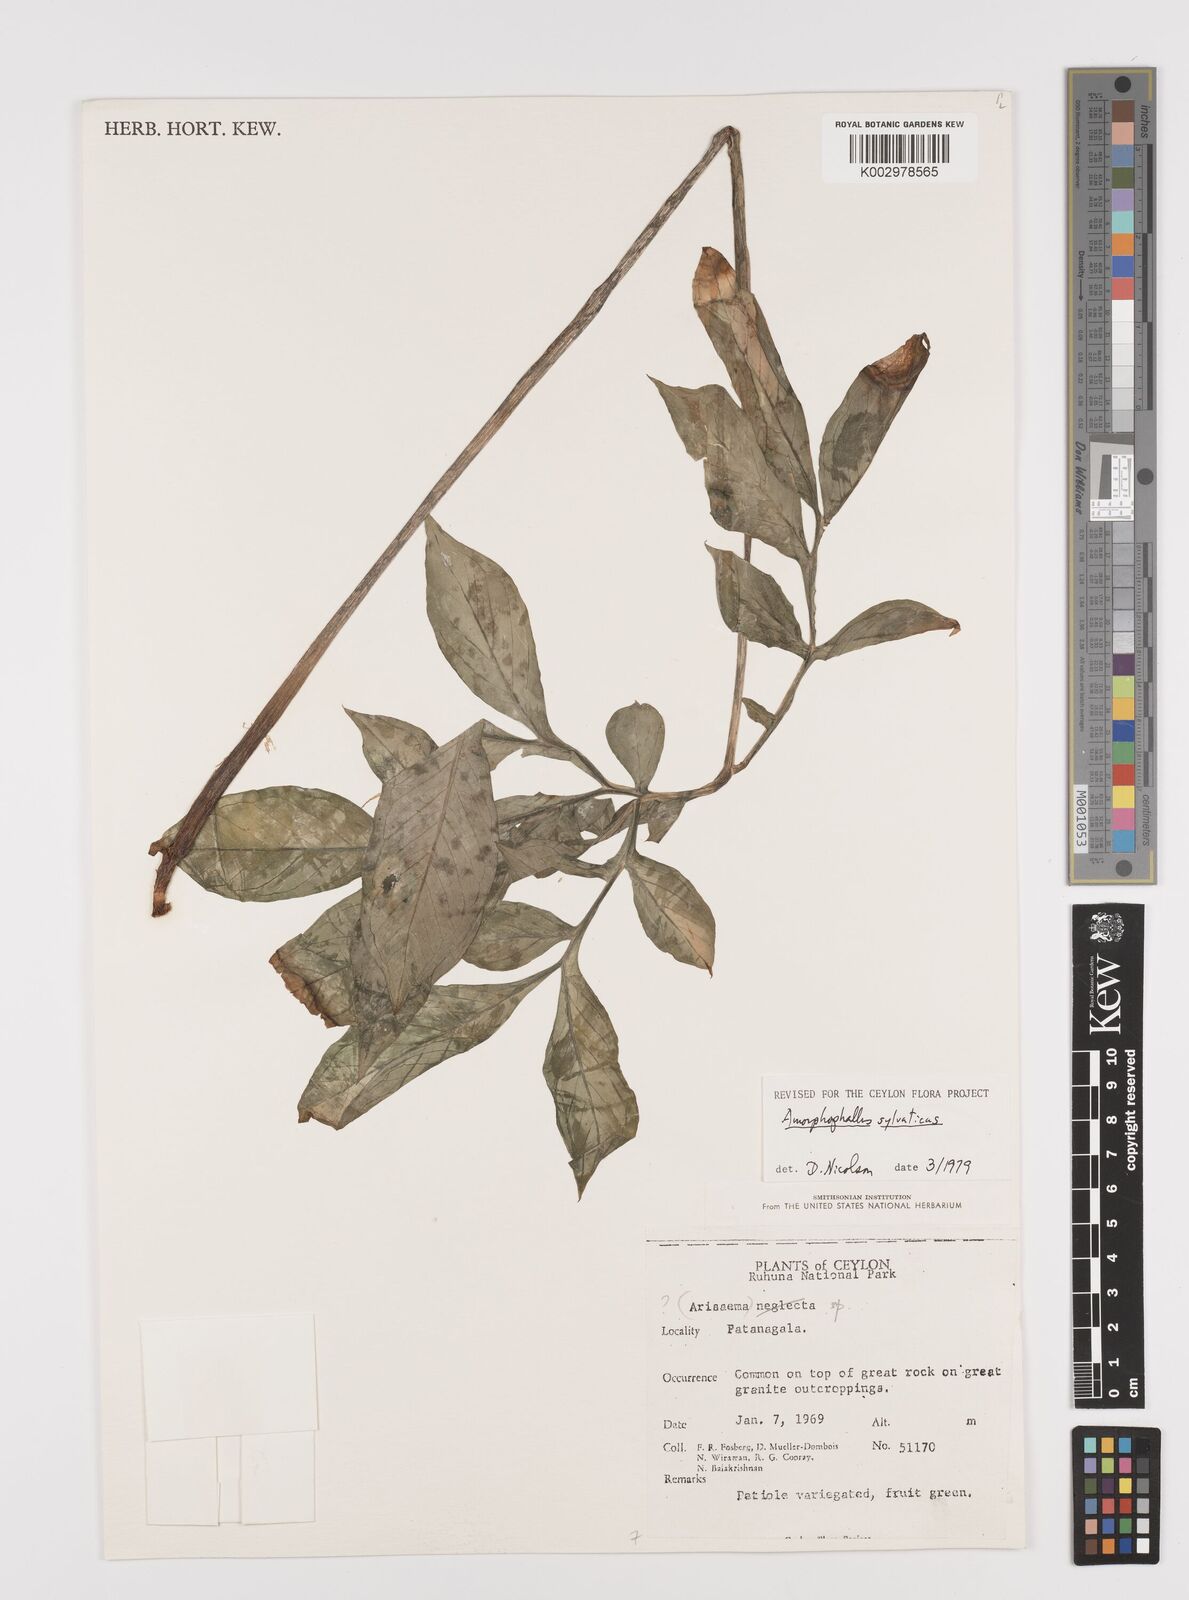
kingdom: Plantae
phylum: Tracheophyta
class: Liliopsida
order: Alismatales
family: Araceae
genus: Amorphophallus
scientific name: Amorphophallus sylvaticus
